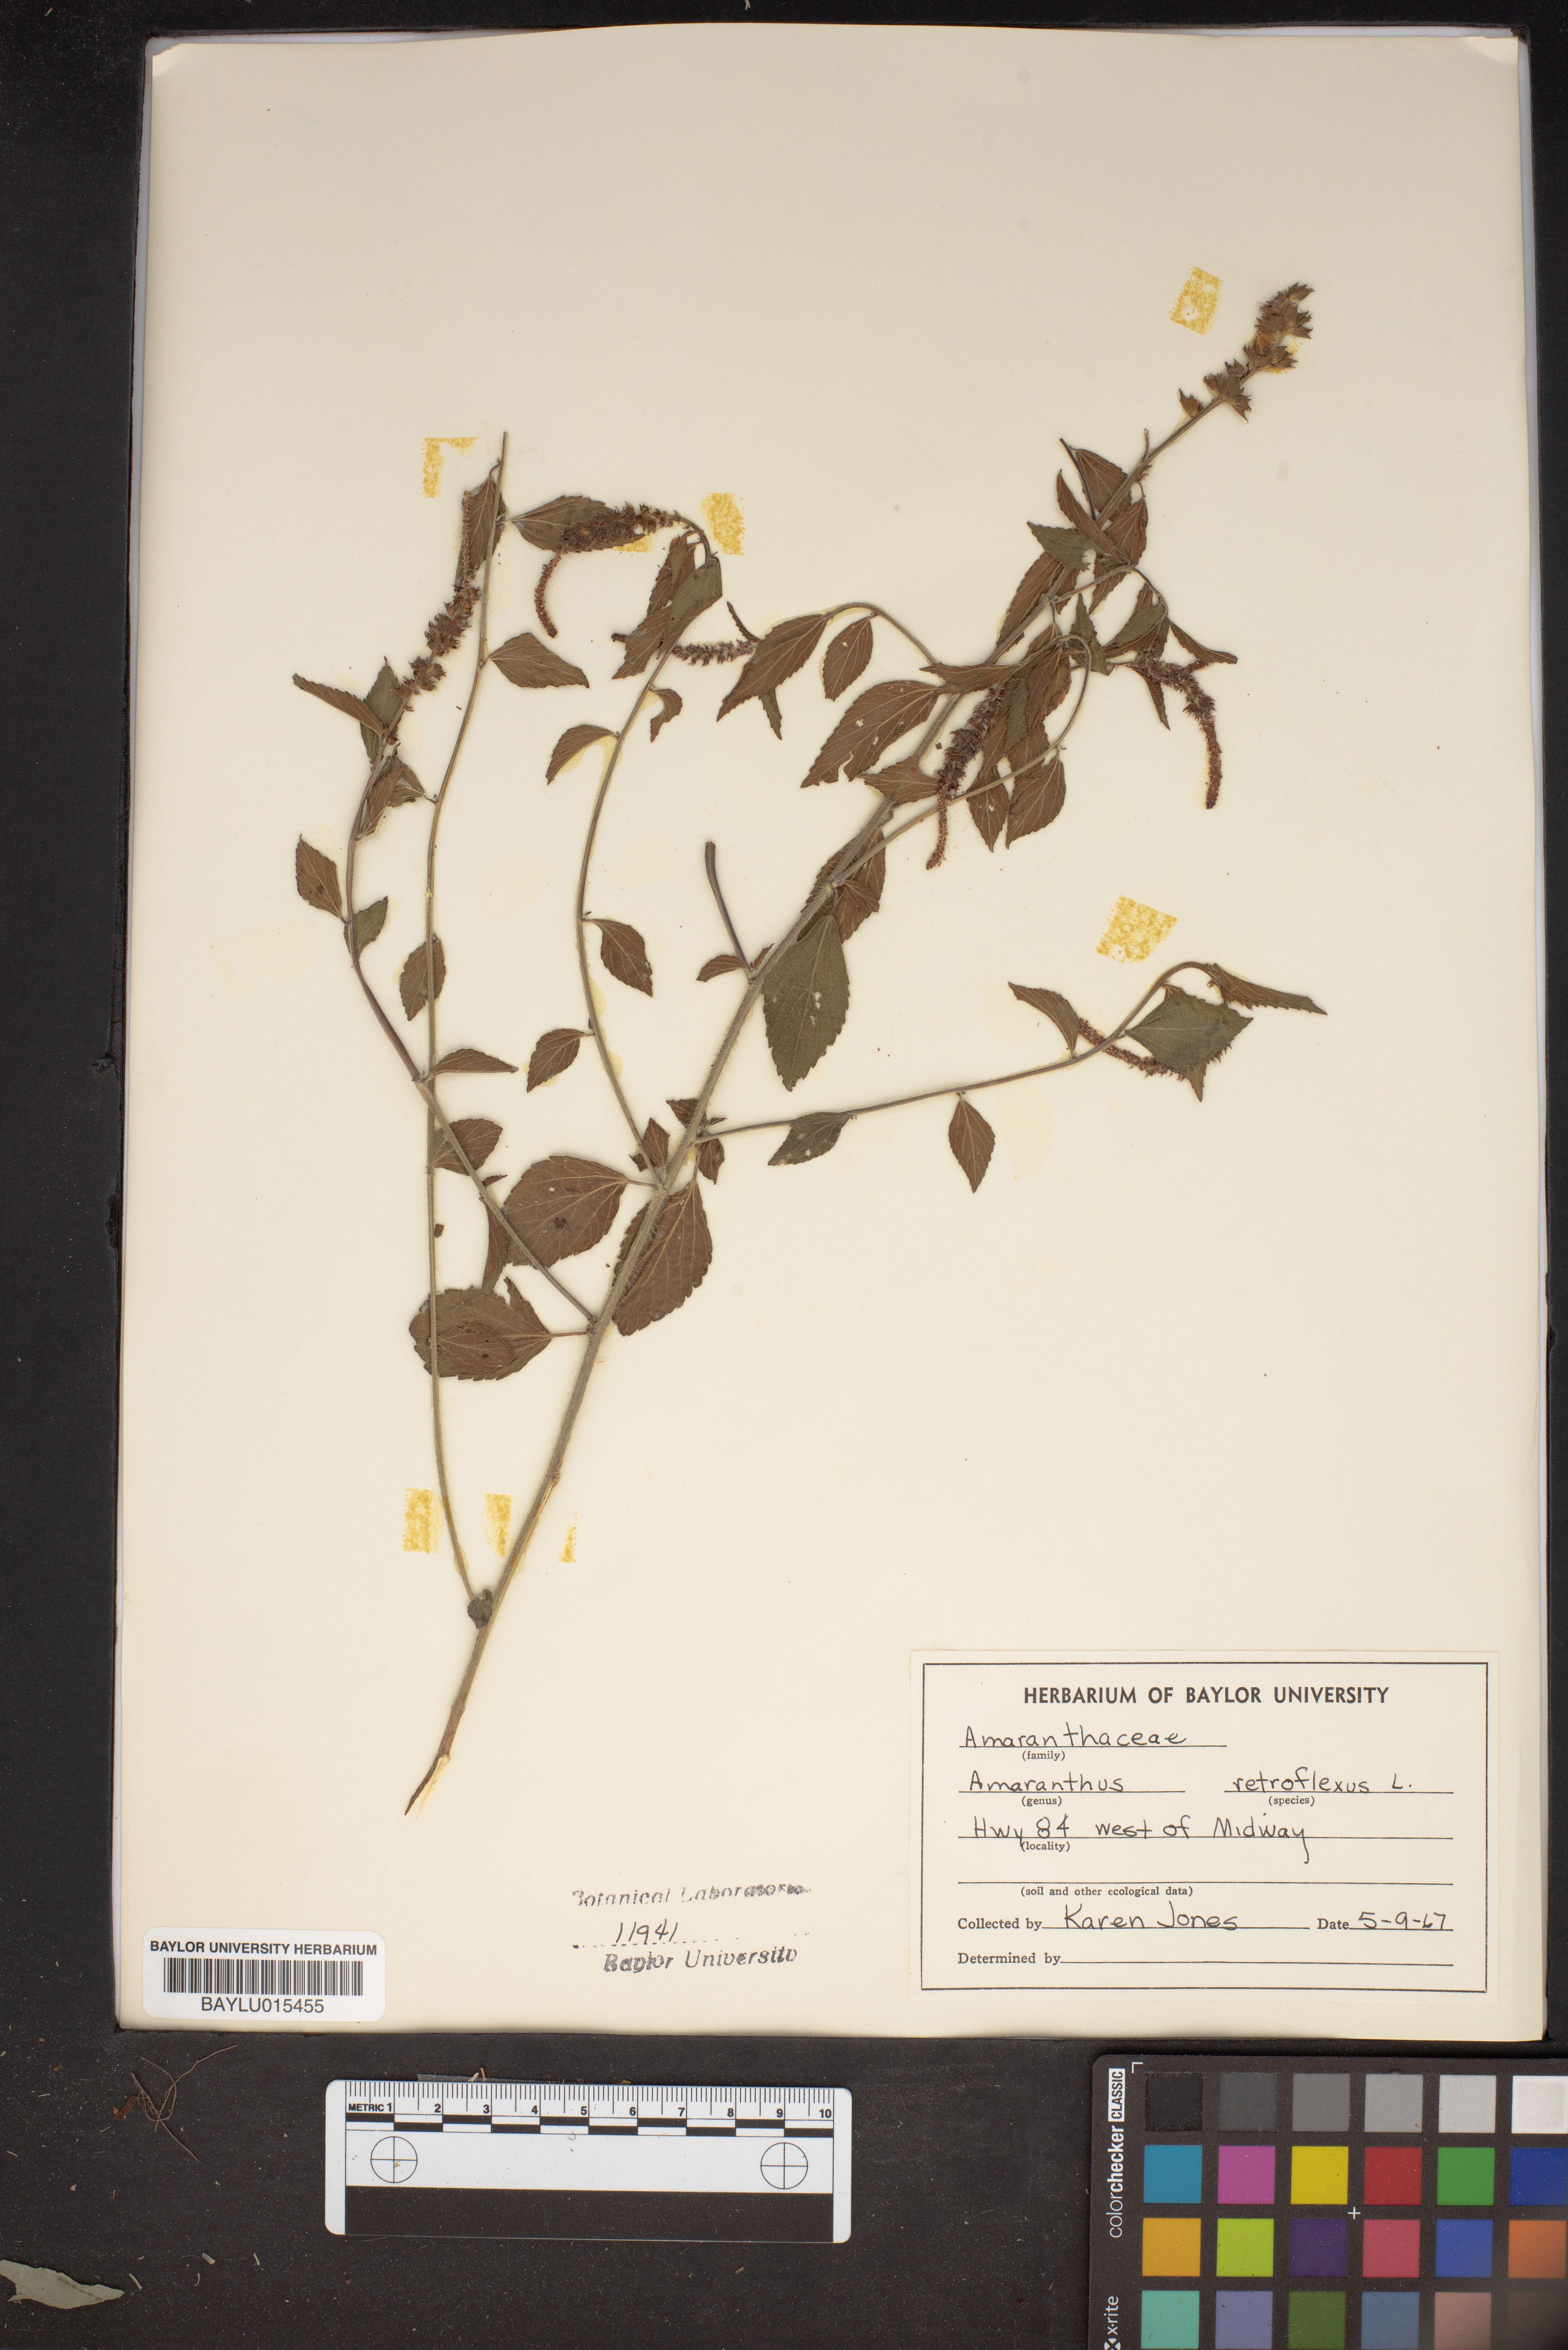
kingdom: Plantae
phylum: Tracheophyta
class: Magnoliopsida
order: Caryophyllales
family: Amaranthaceae
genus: Amaranthus
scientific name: Amaranthus retroflexus
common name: Redroot amaranth
